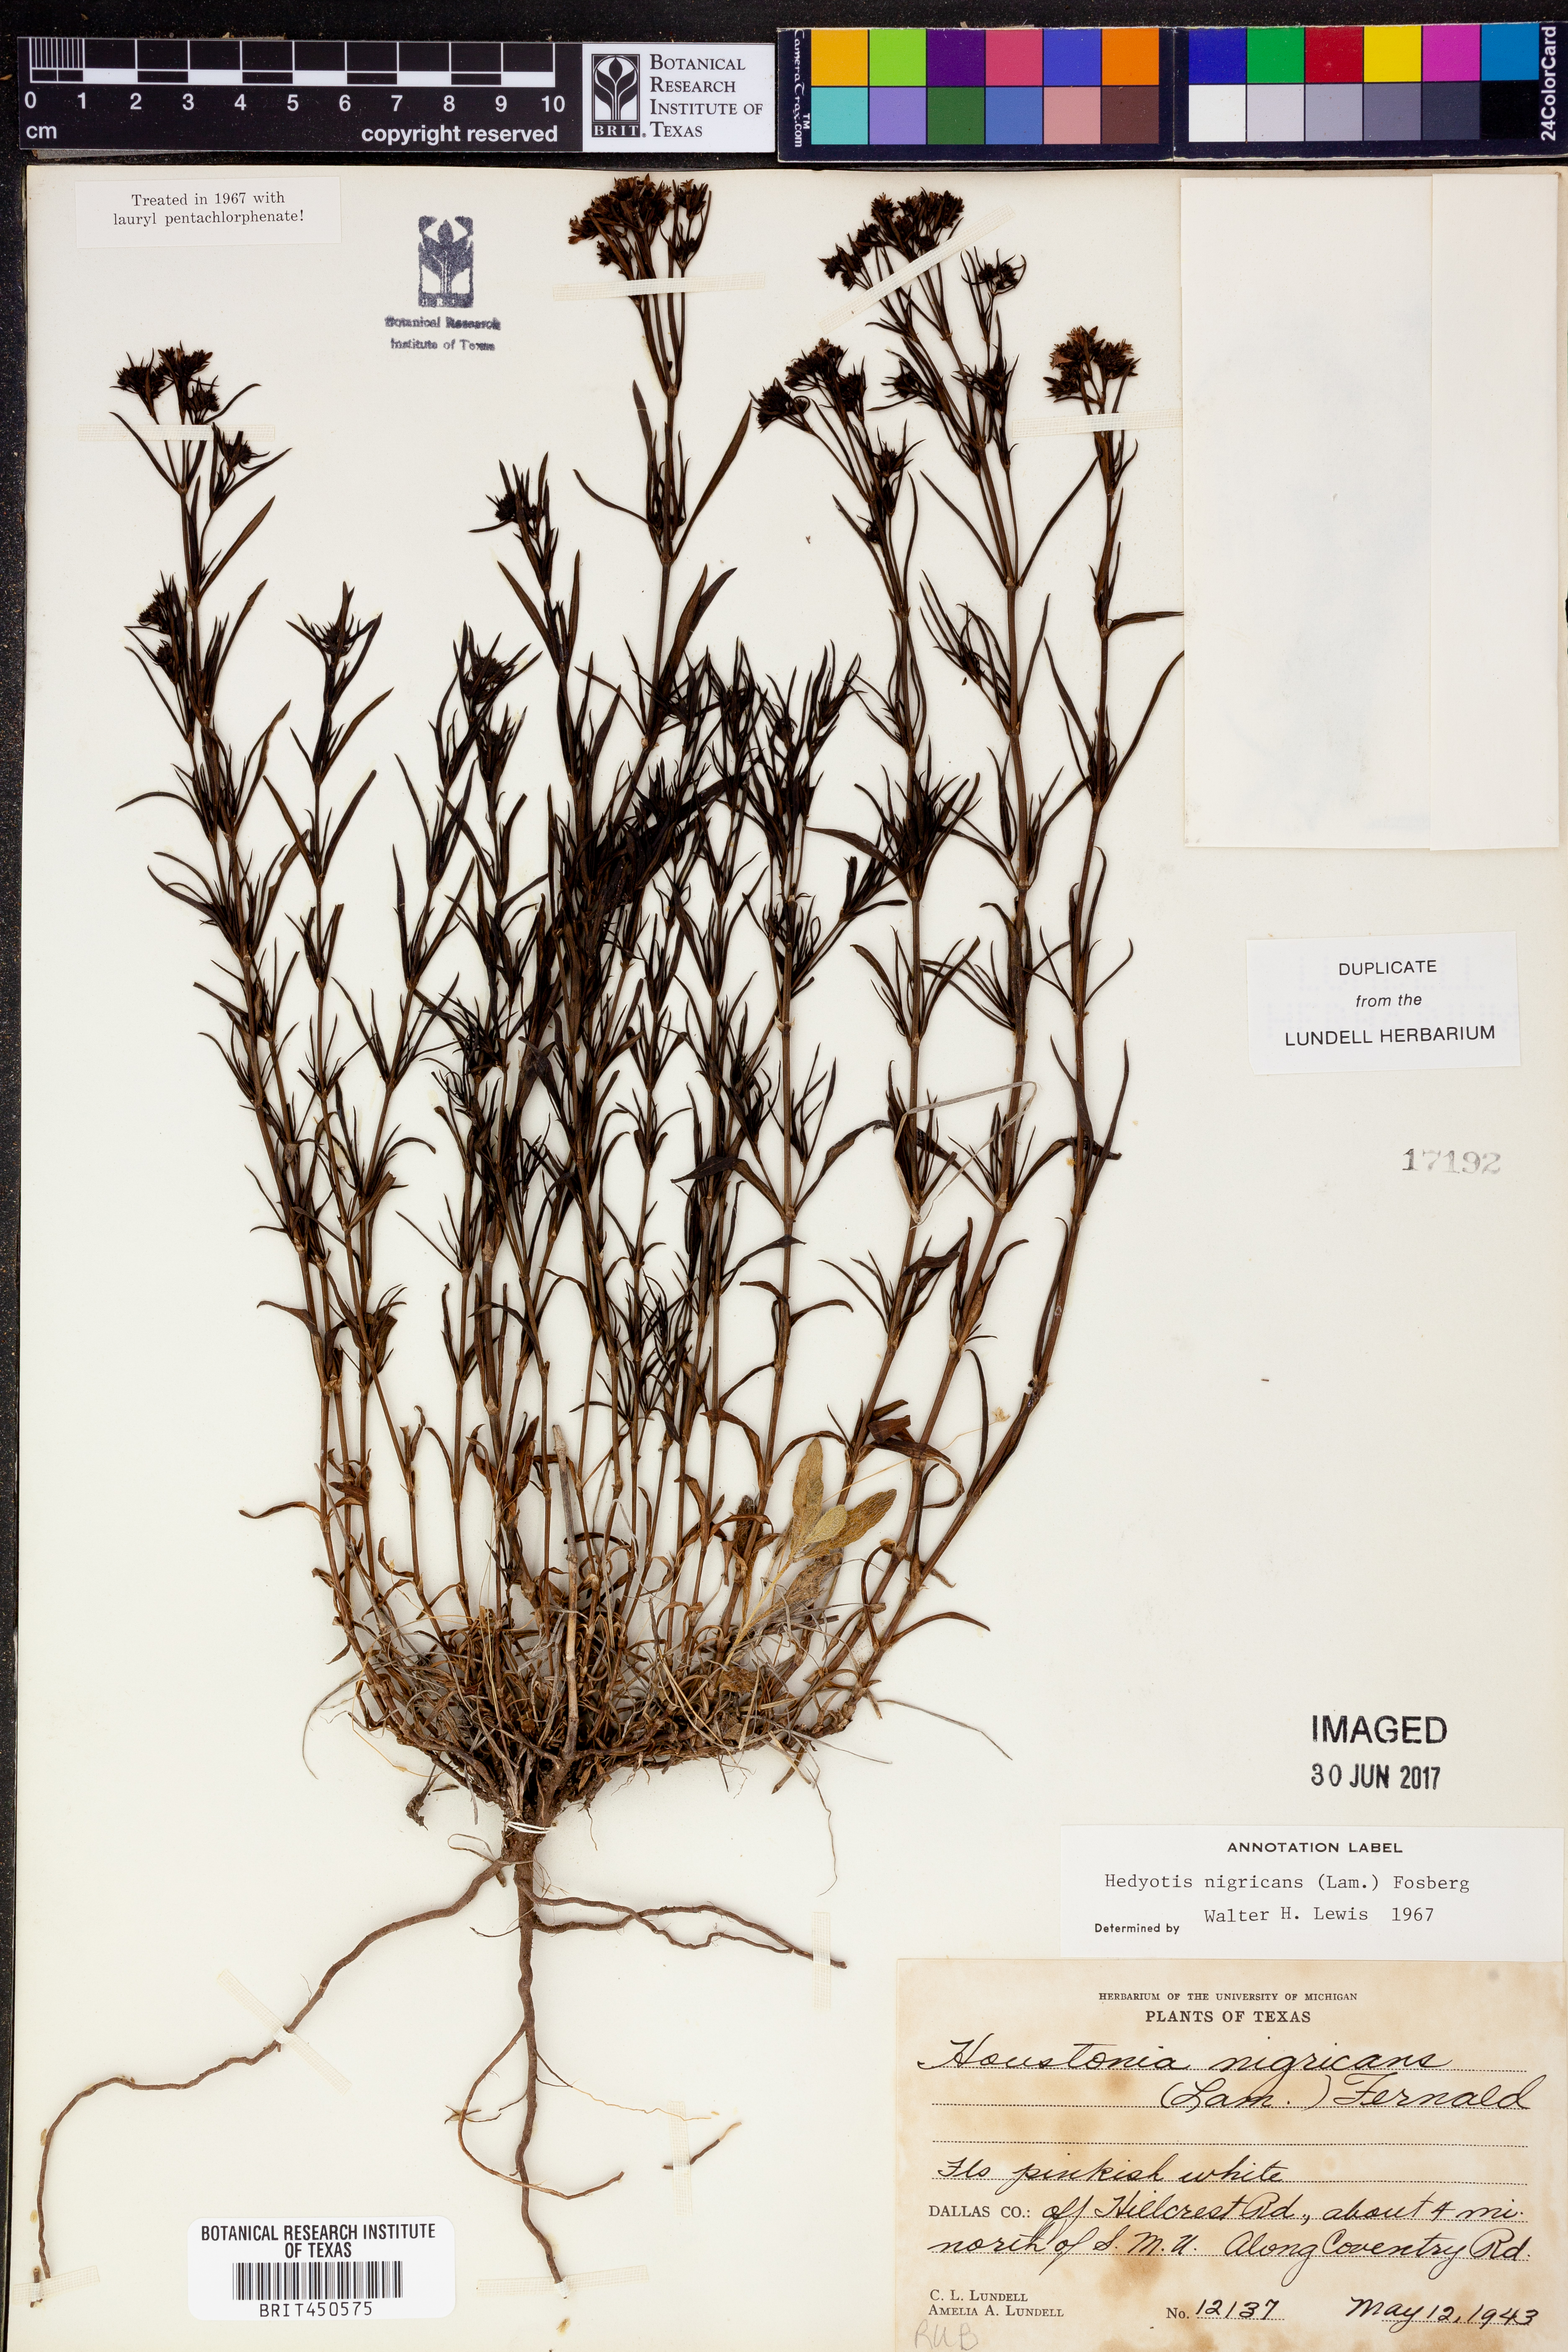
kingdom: Plantae
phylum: Tracheophyta
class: Magnoliopsida
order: Gentianales
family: Rubiaceae
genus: Stenaria
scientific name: Stenaria nigricans
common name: Diamondflowers
